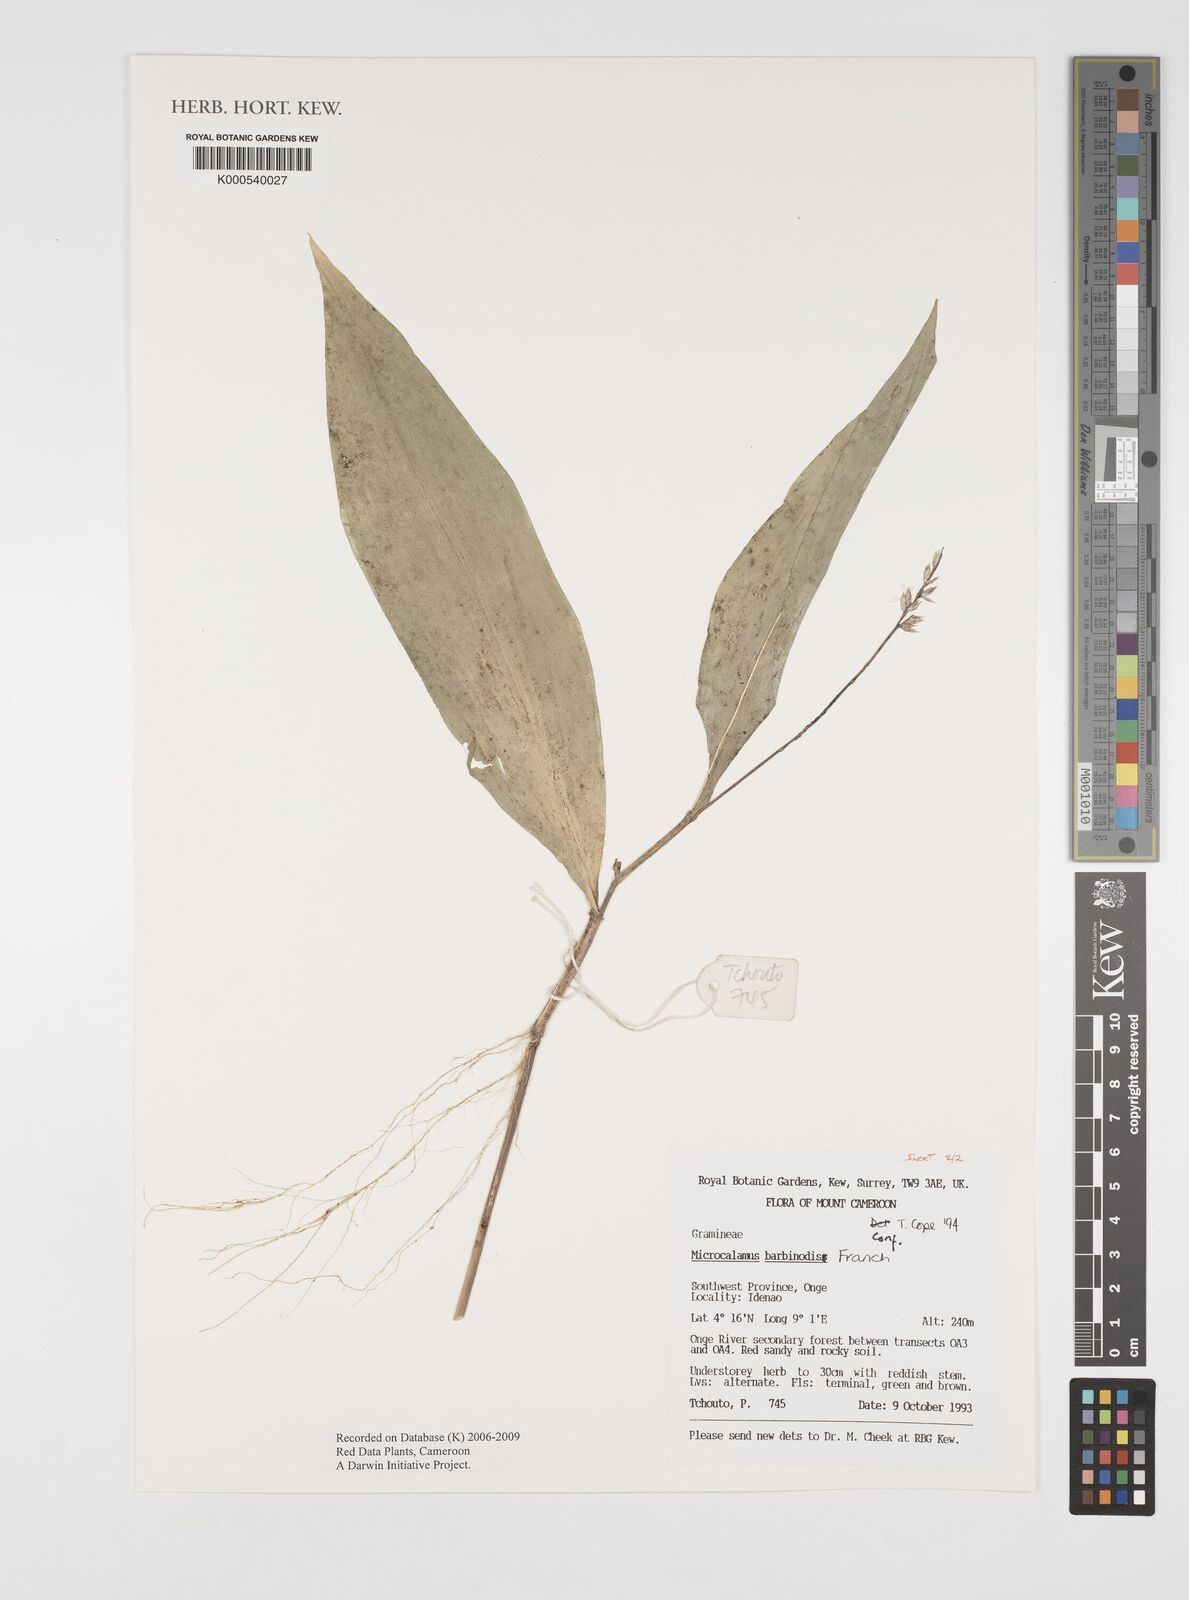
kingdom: Plantae
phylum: Tracheophyta
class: Liliopsida
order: Poales
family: Poaceae
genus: Microcalamus
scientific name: Microcalamus barbinodis
